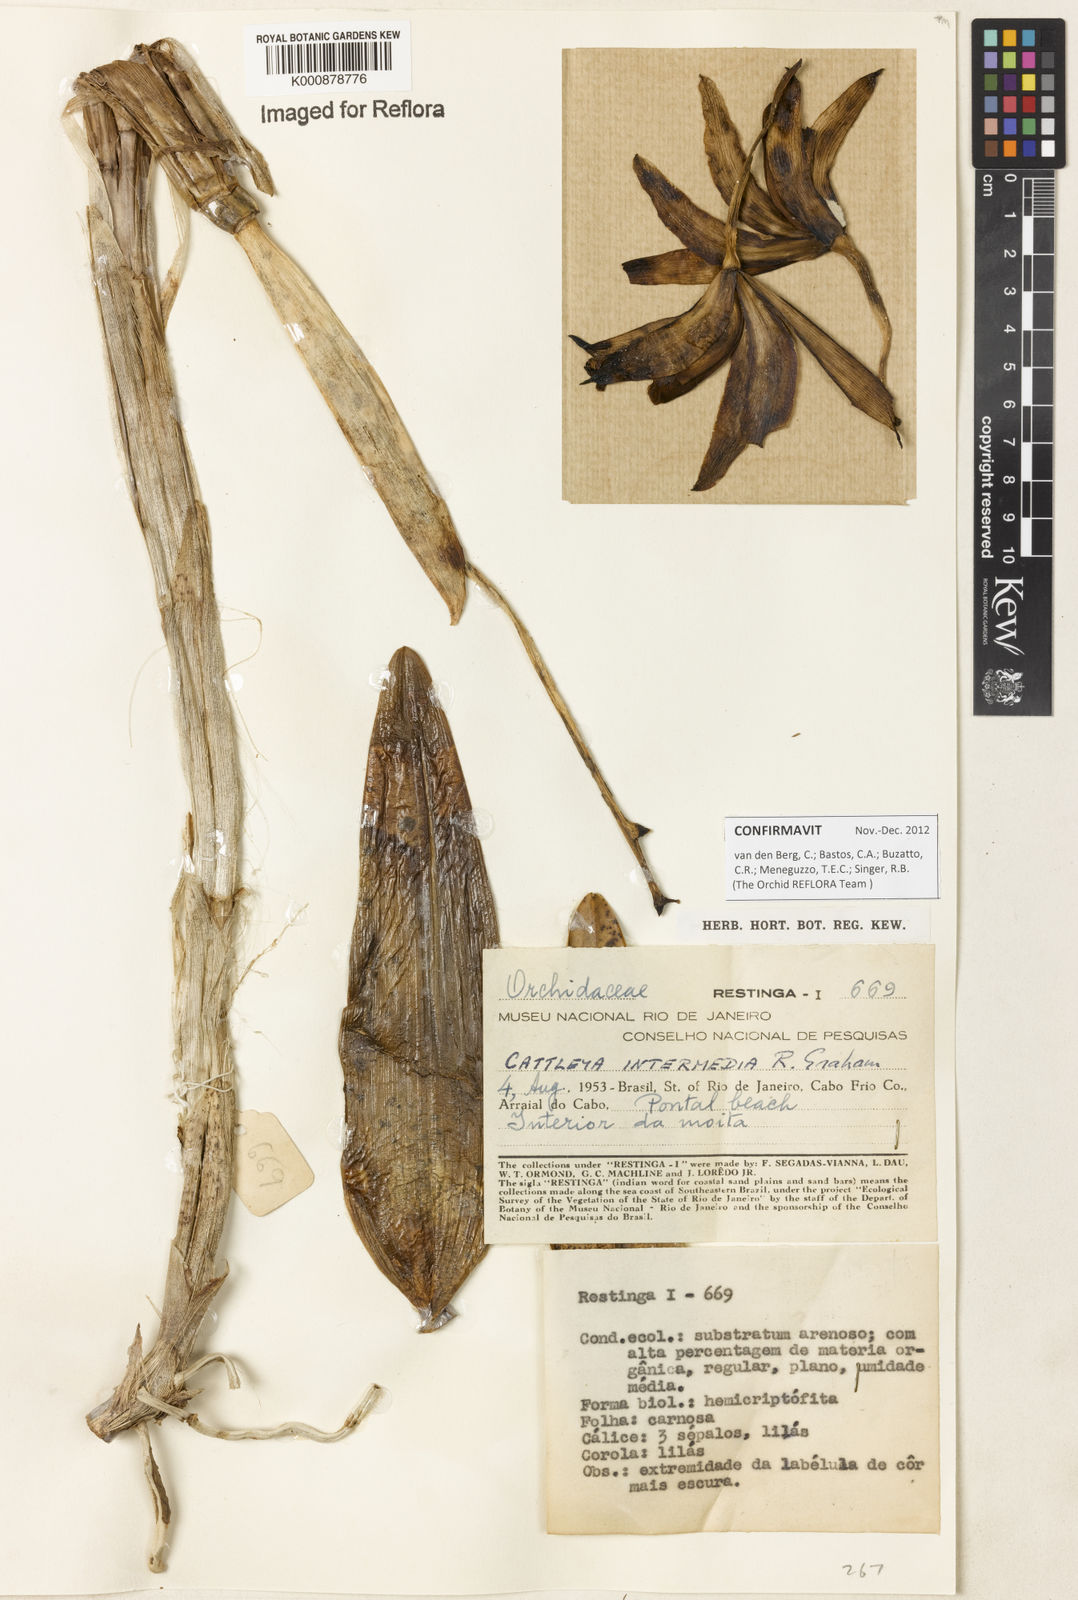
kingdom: Plantae
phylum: Tracheophyta
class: Liliopsida
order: Asparagales
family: Orchidaceae
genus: Cattleya
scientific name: Cattleya intermedia
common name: Intermediate cattleya
